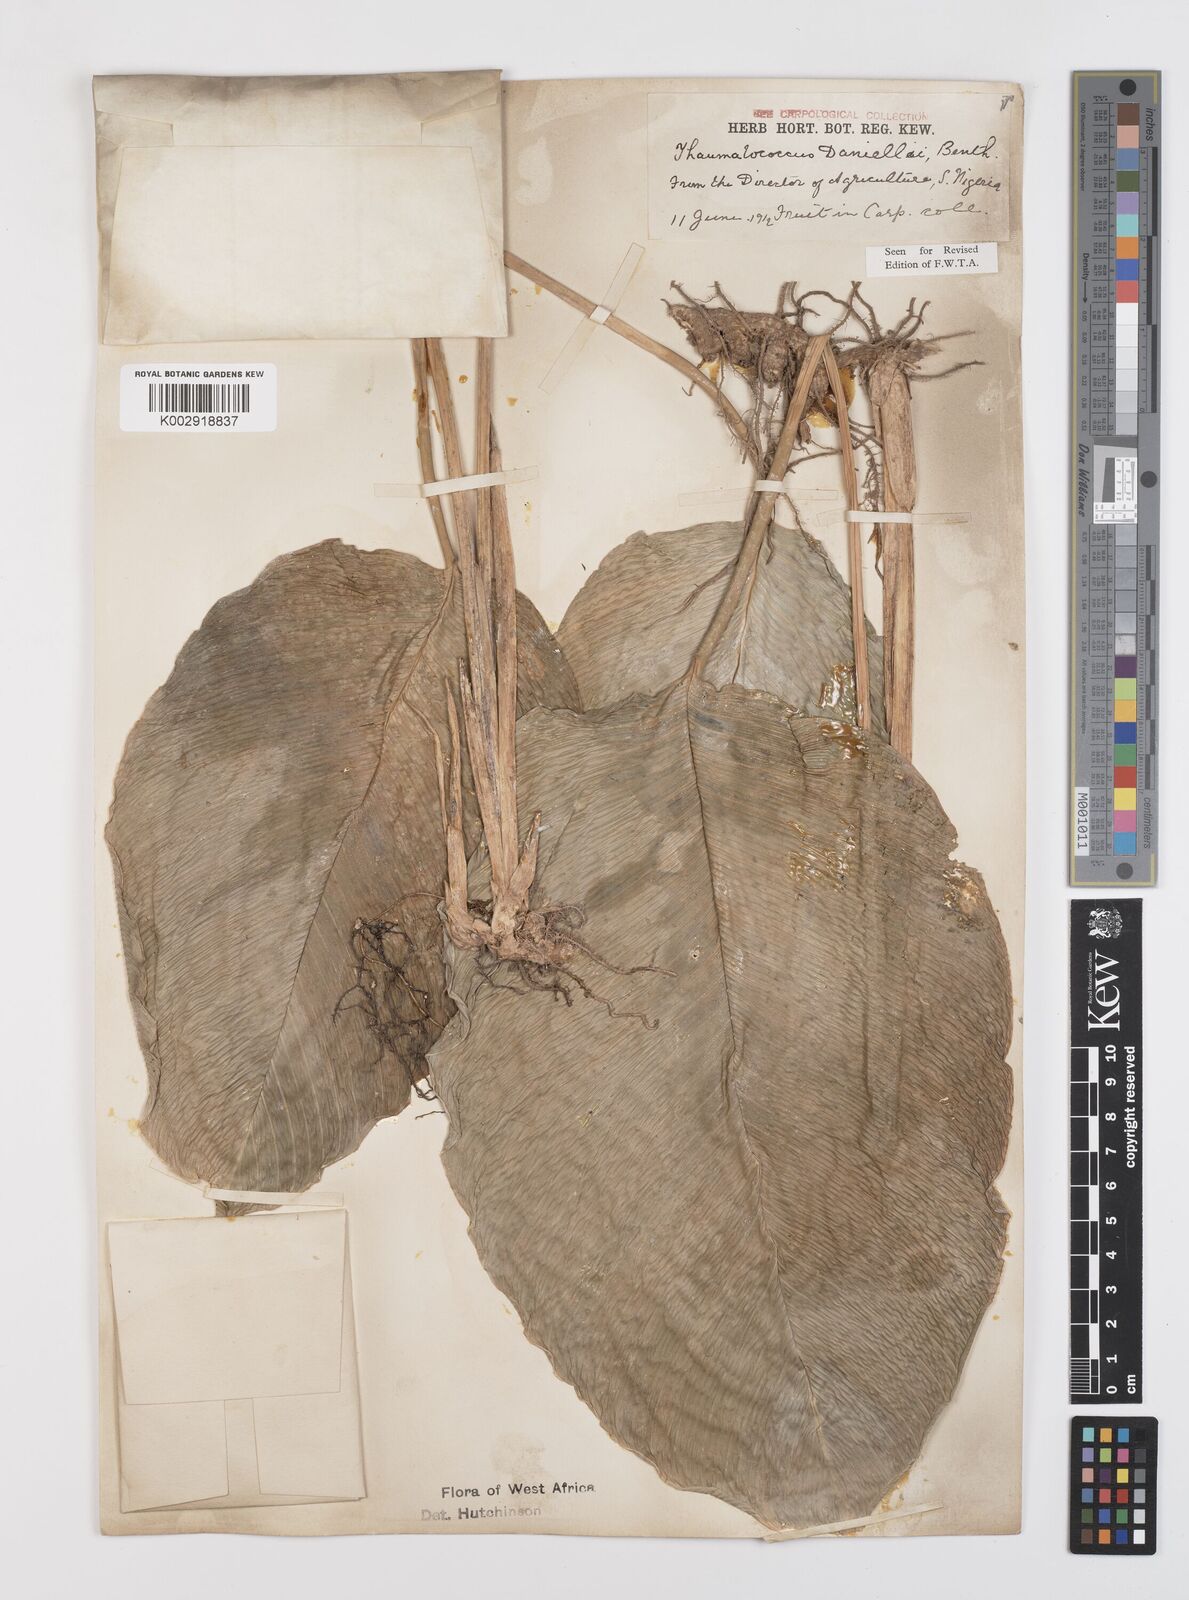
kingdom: Plantae
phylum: Tracheophyta
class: Liliopsida
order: Zingiberales
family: Marantaceae
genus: Thaumatococcus
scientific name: Thaumatococcus daniellii
